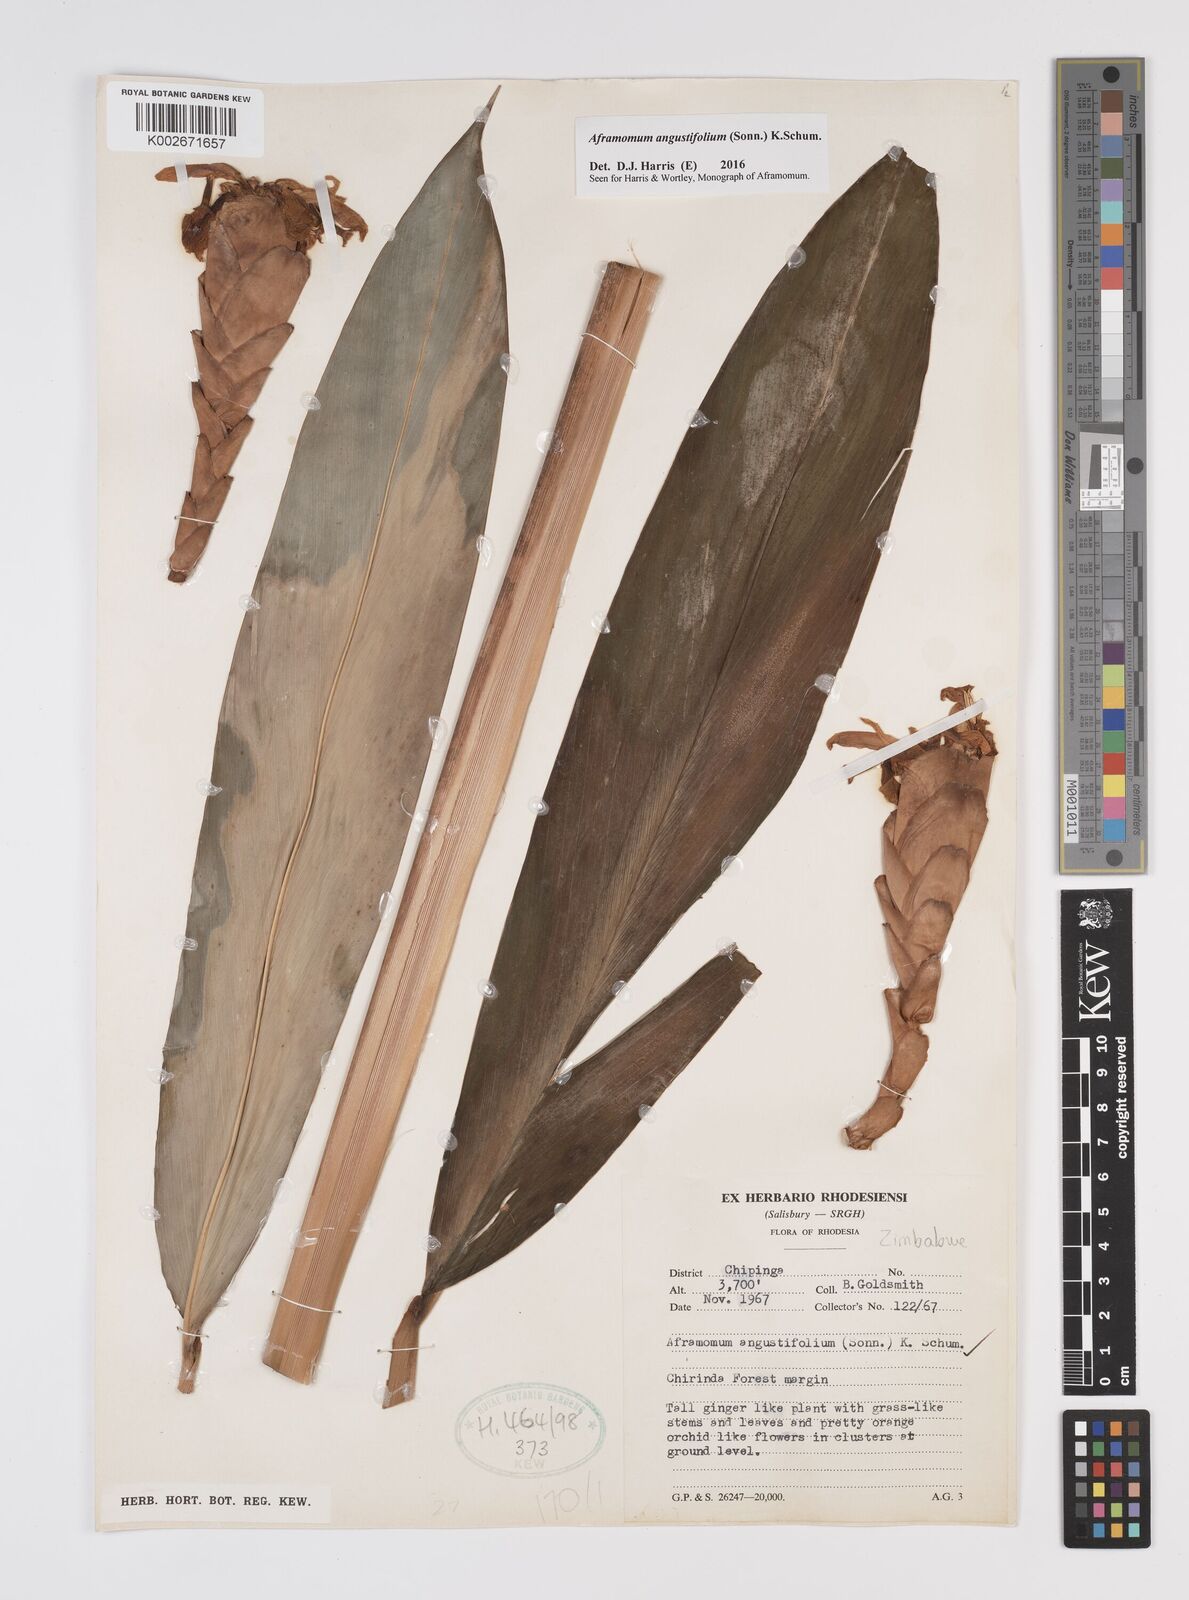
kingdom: Plantae
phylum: Tracheophyta
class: Liliopsida
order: Zingiberales
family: Zingiberaceae
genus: Aframomum
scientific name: Aframomum
